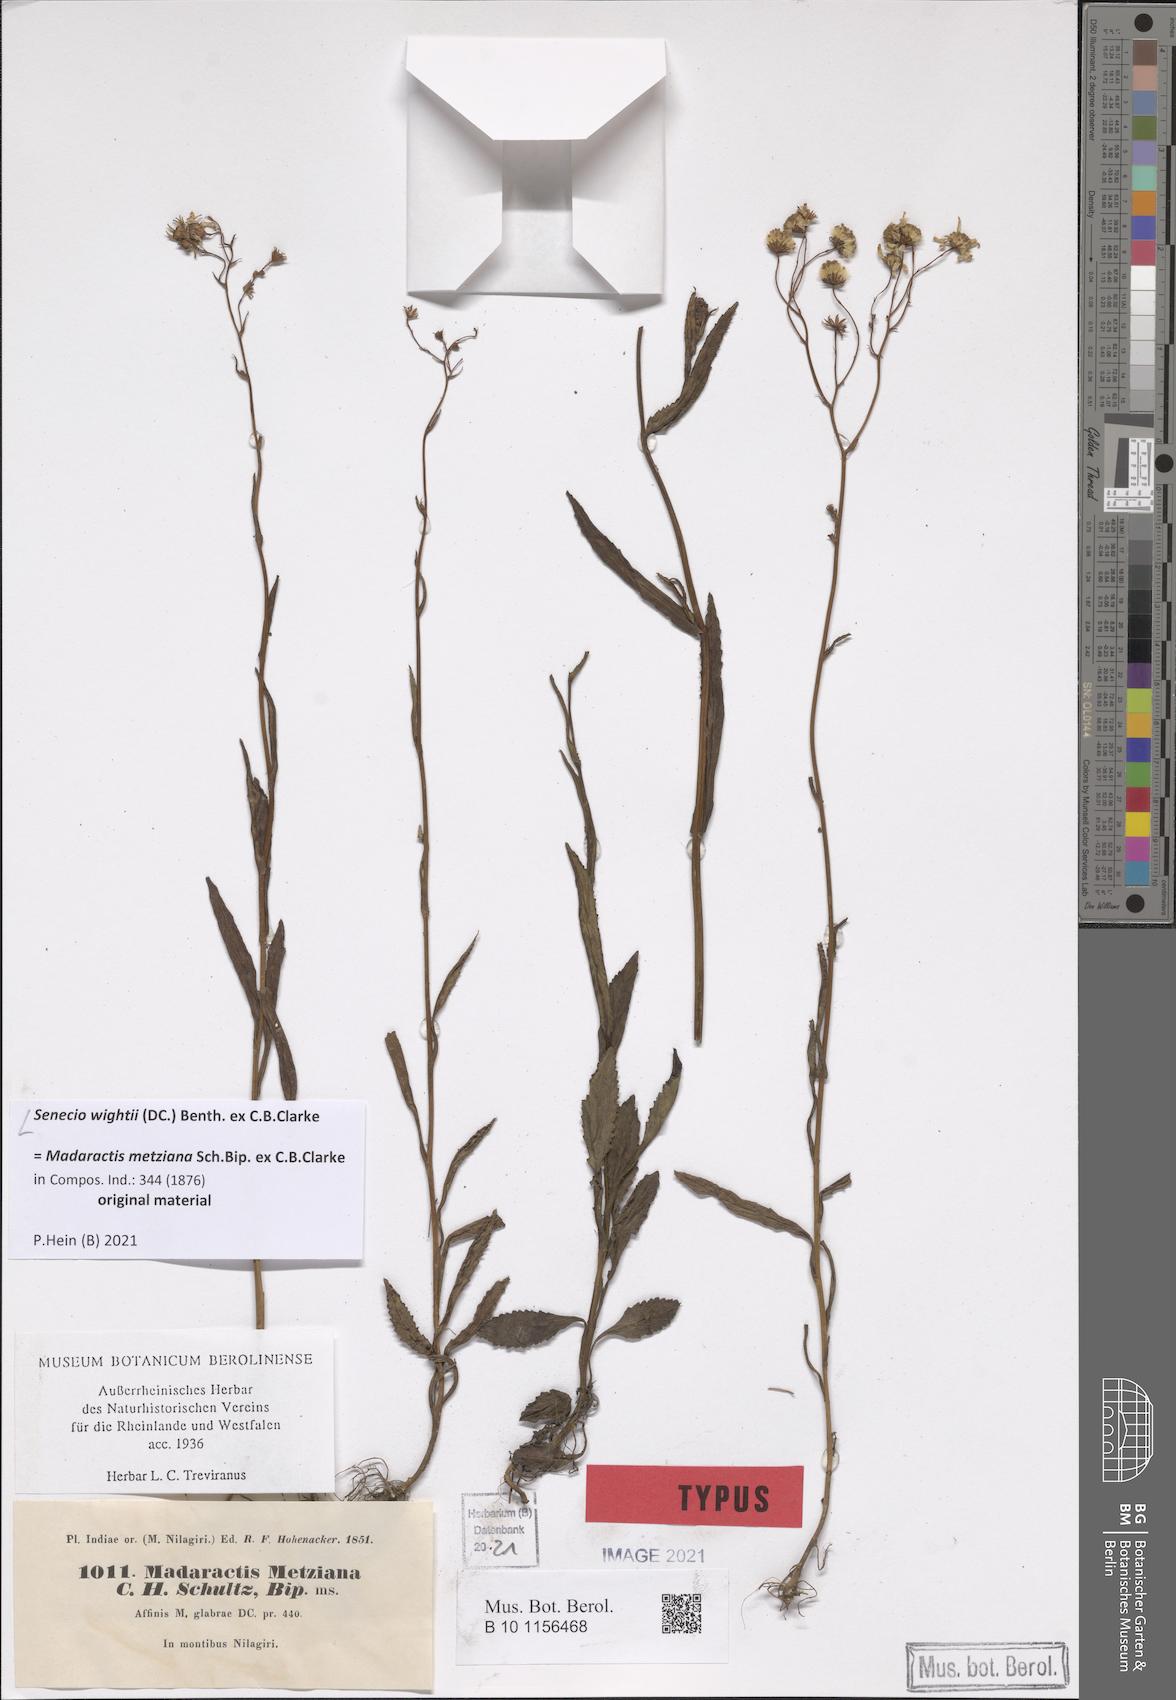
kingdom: Plantae
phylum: Tracheophyta
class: Magnoliopsida
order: Asterales
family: Asteraceae
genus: Senecio
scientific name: Senecio wightii
